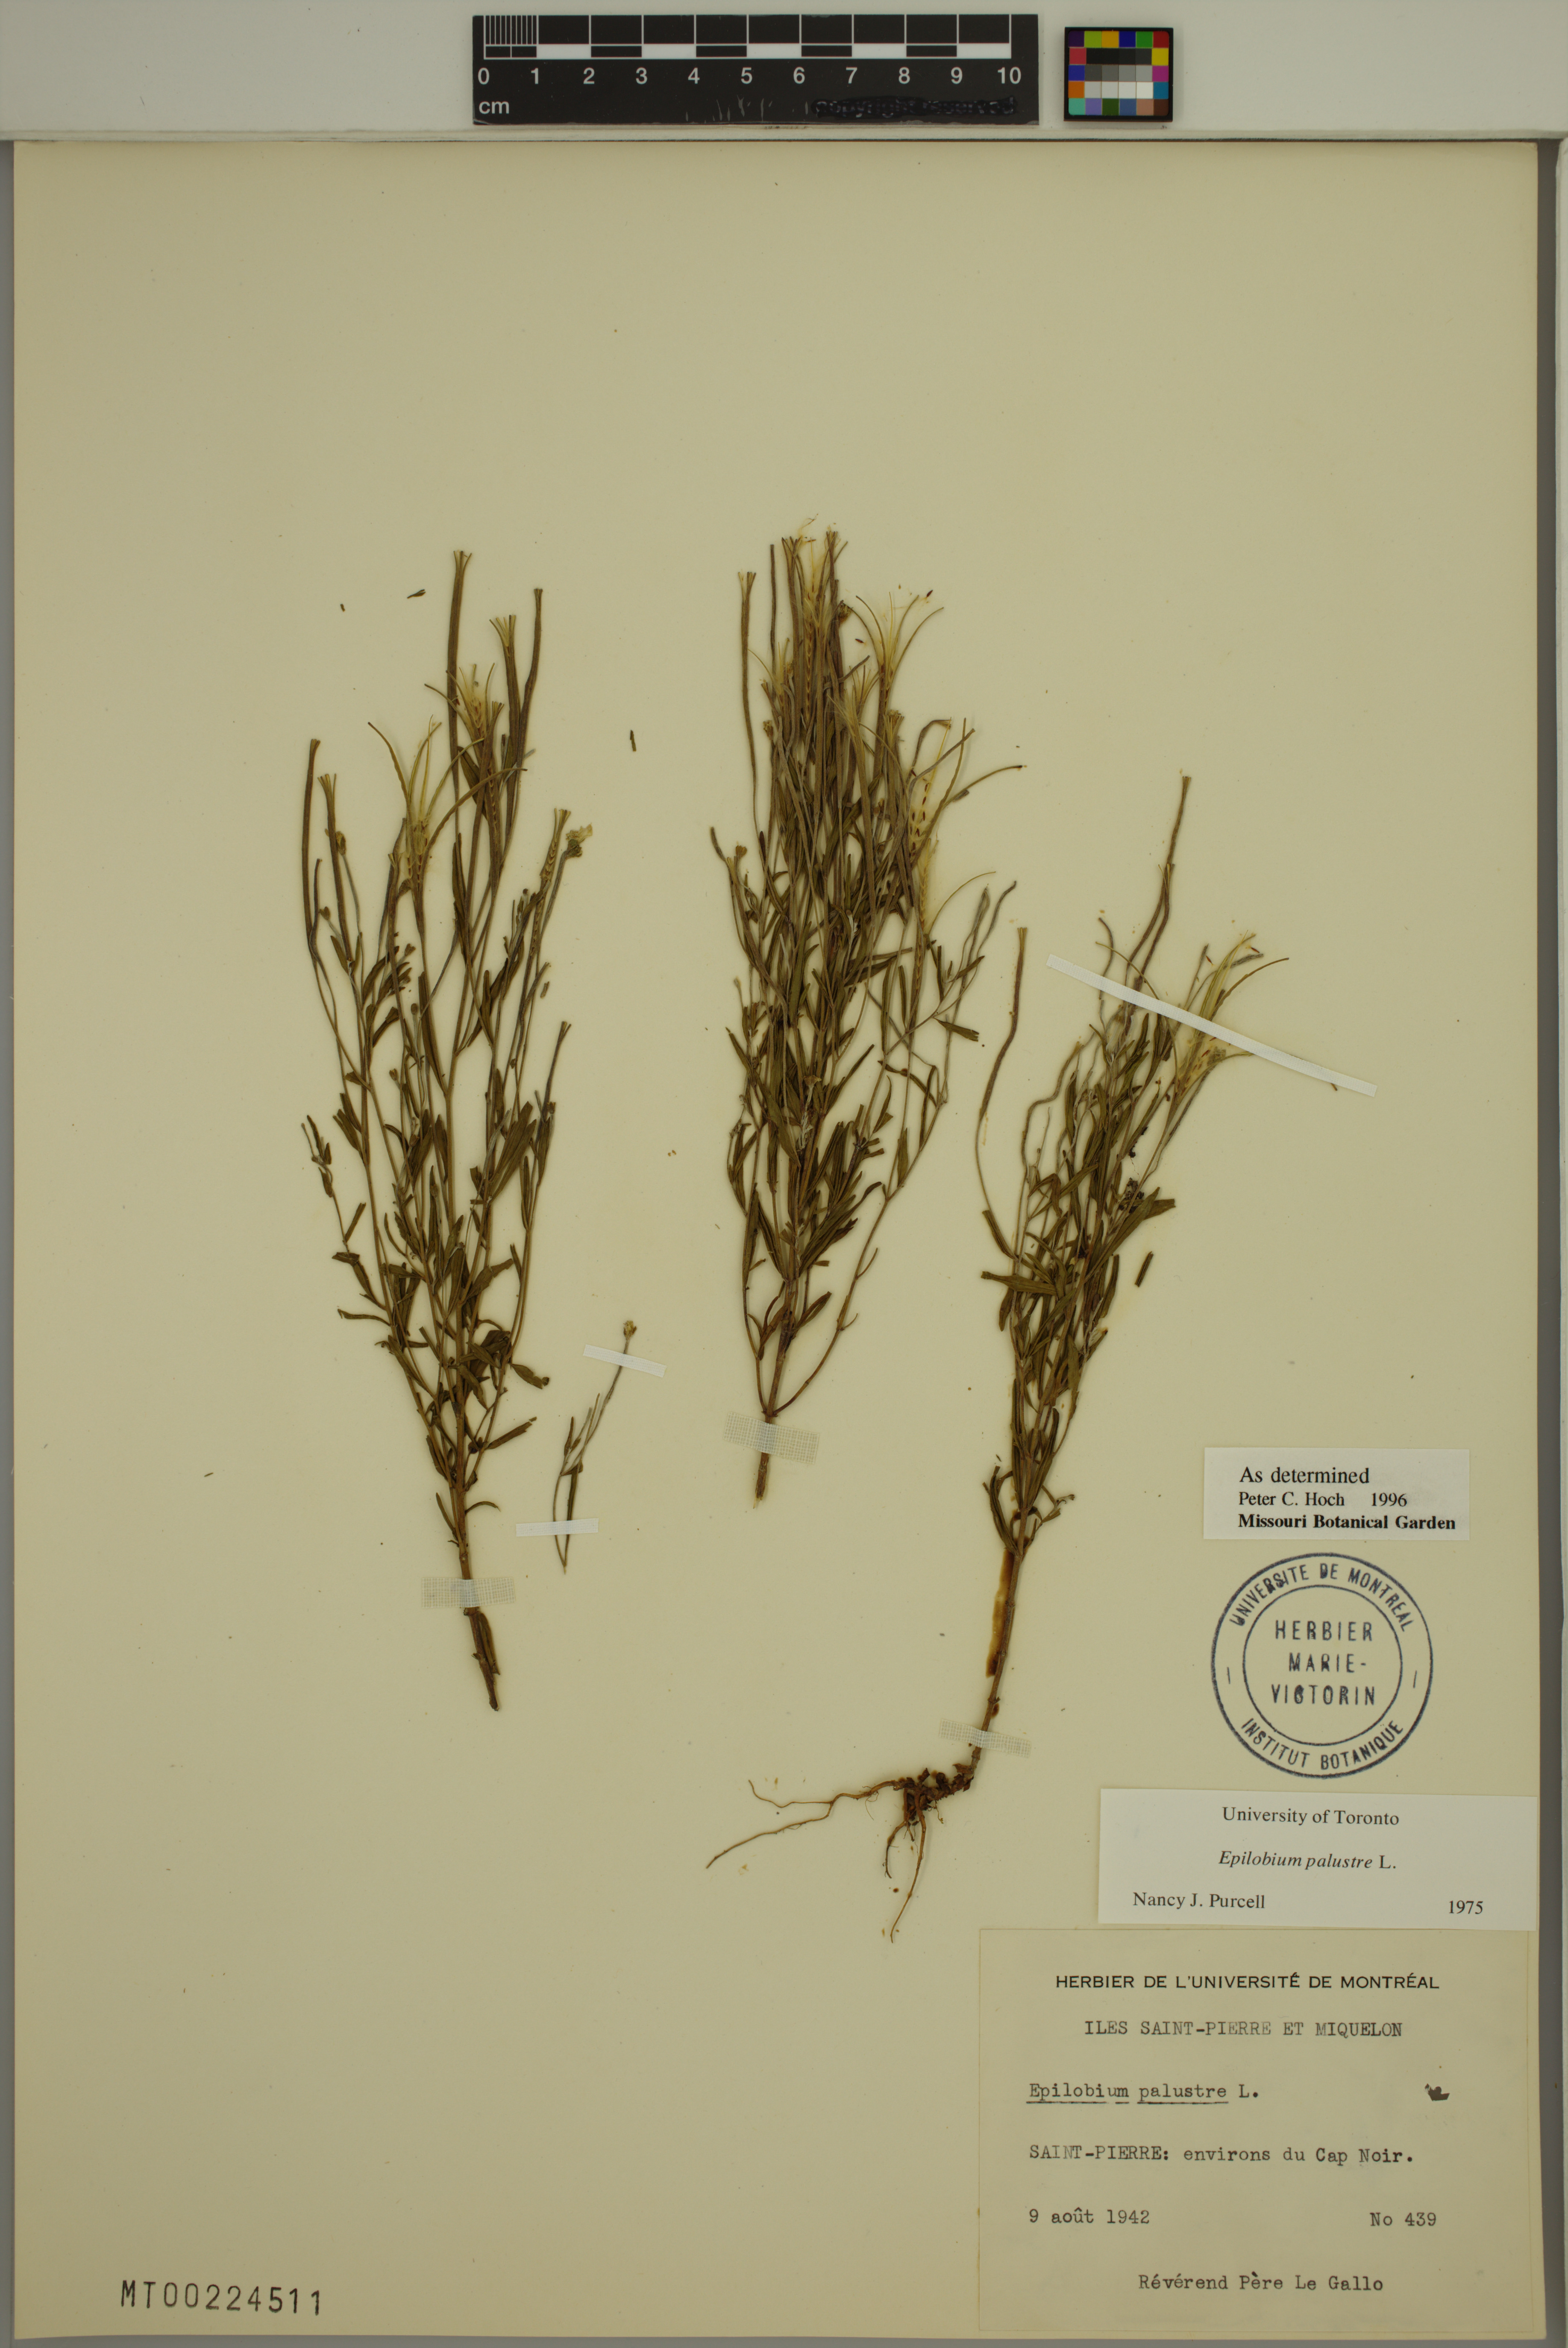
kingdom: Plantae
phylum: Tracheophyta
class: Magnoliopsida
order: Myrtales
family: Onagraceae
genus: Epilobium
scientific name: Epilobium palustre
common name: Marsh willowherb
